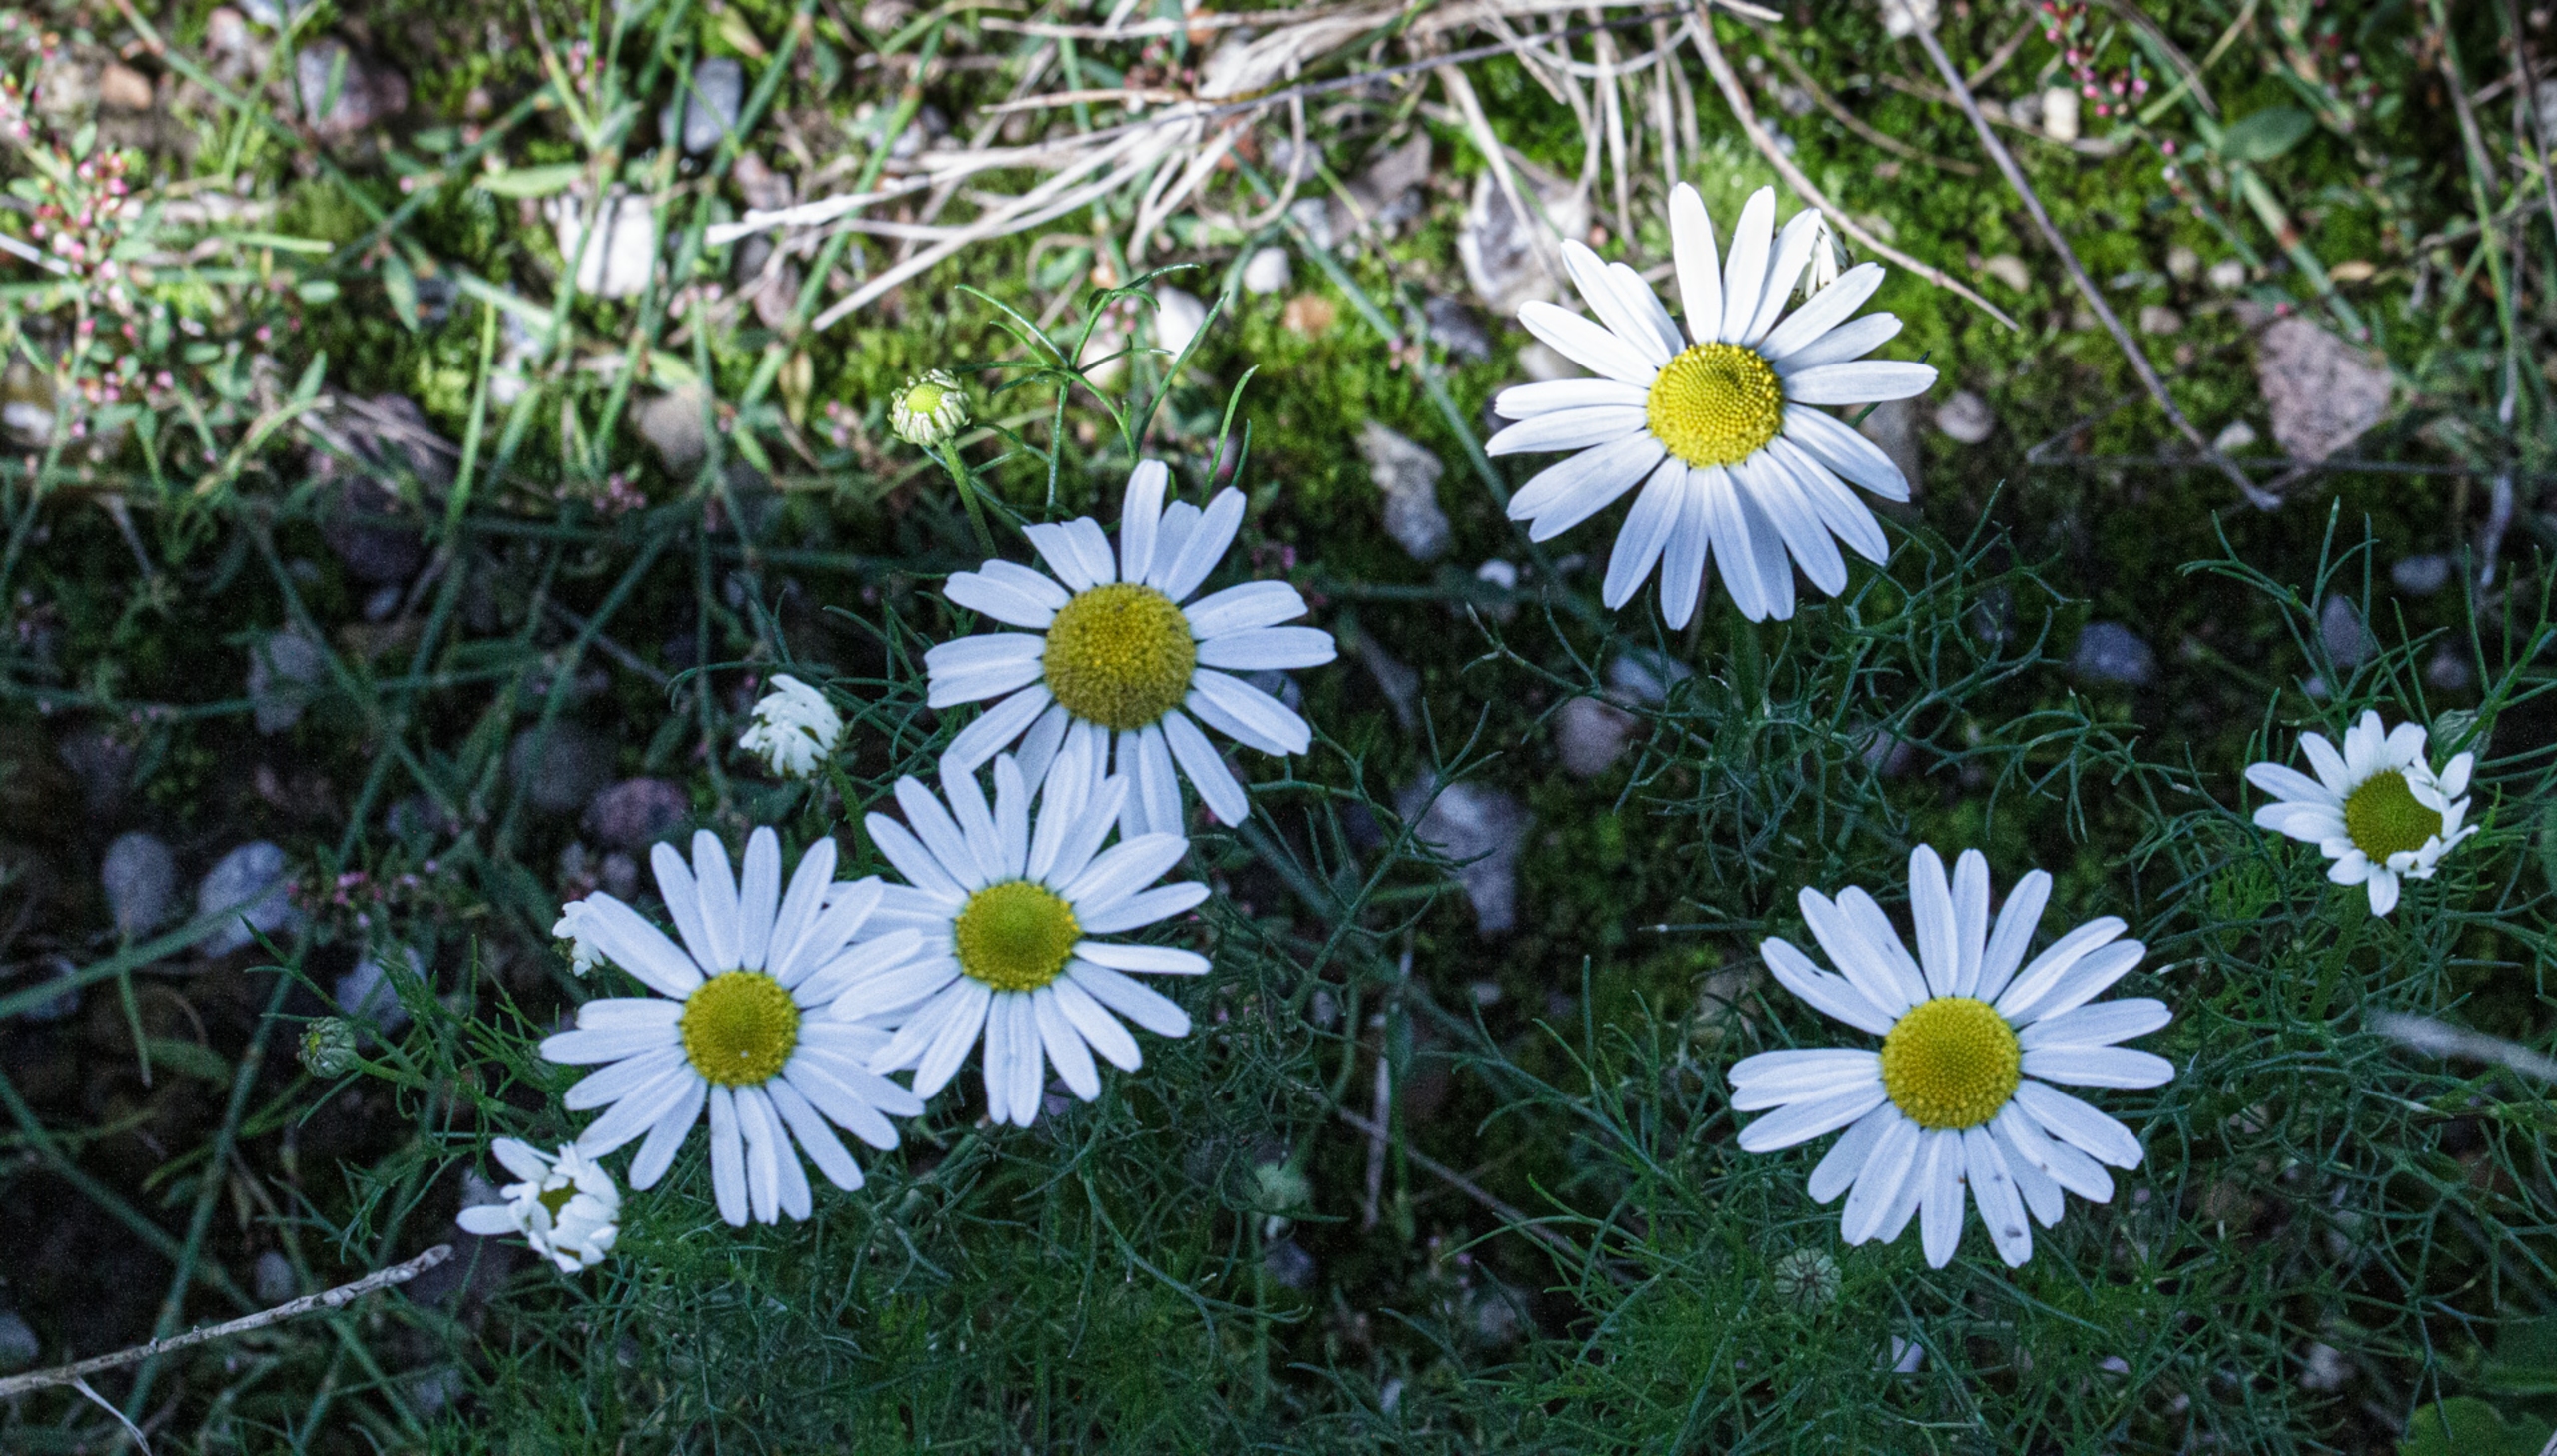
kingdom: Plantae
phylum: Tracheophyta
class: Magnoliopsida
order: Asterales
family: Asteraceae
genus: Tripleurospermum
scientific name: Tripleurospermum inodorum
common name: Lugtløs kamille
